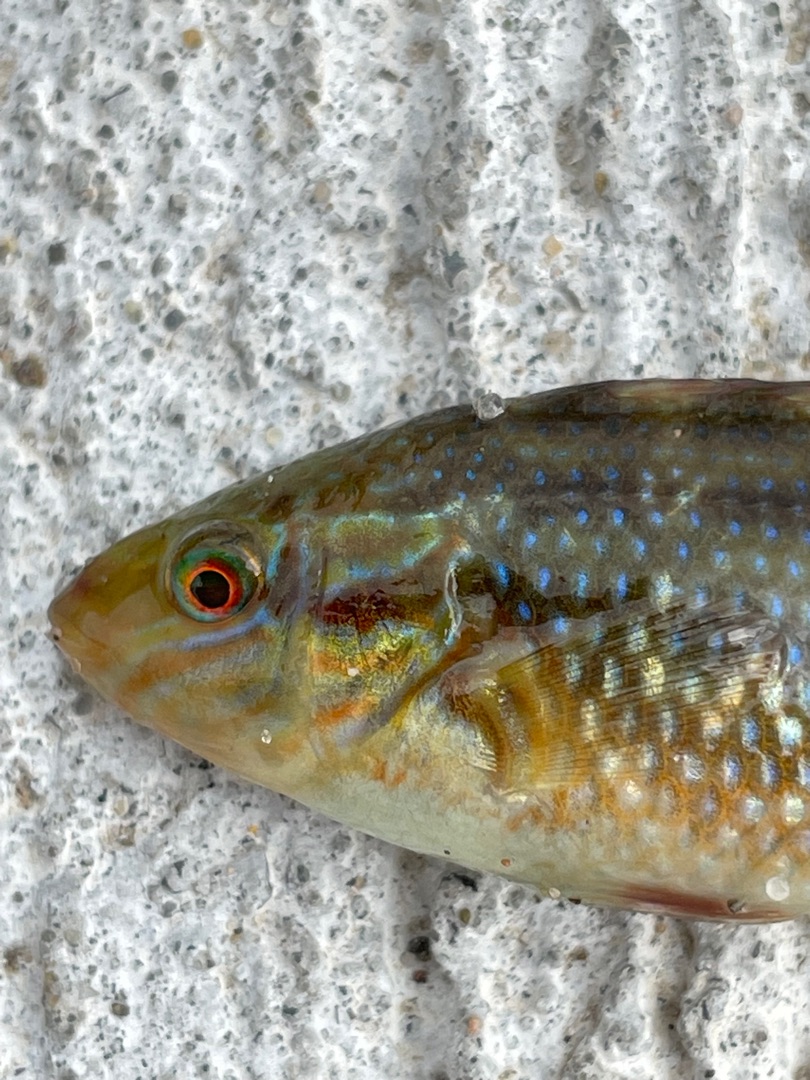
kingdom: Animalia
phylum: Chordata
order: Perciformes
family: Labridae
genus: Symphodus
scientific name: Symphodus melops
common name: Savgylte
